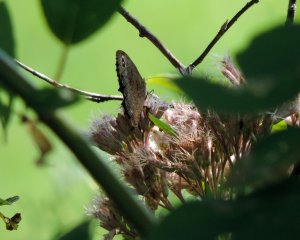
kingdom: Animalia
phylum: Arthropoda
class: Insecta
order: Lepidoptera
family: Nymphalidae
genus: Cercyonis
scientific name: Cercyonis pegala
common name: Common Wood-Nymph
